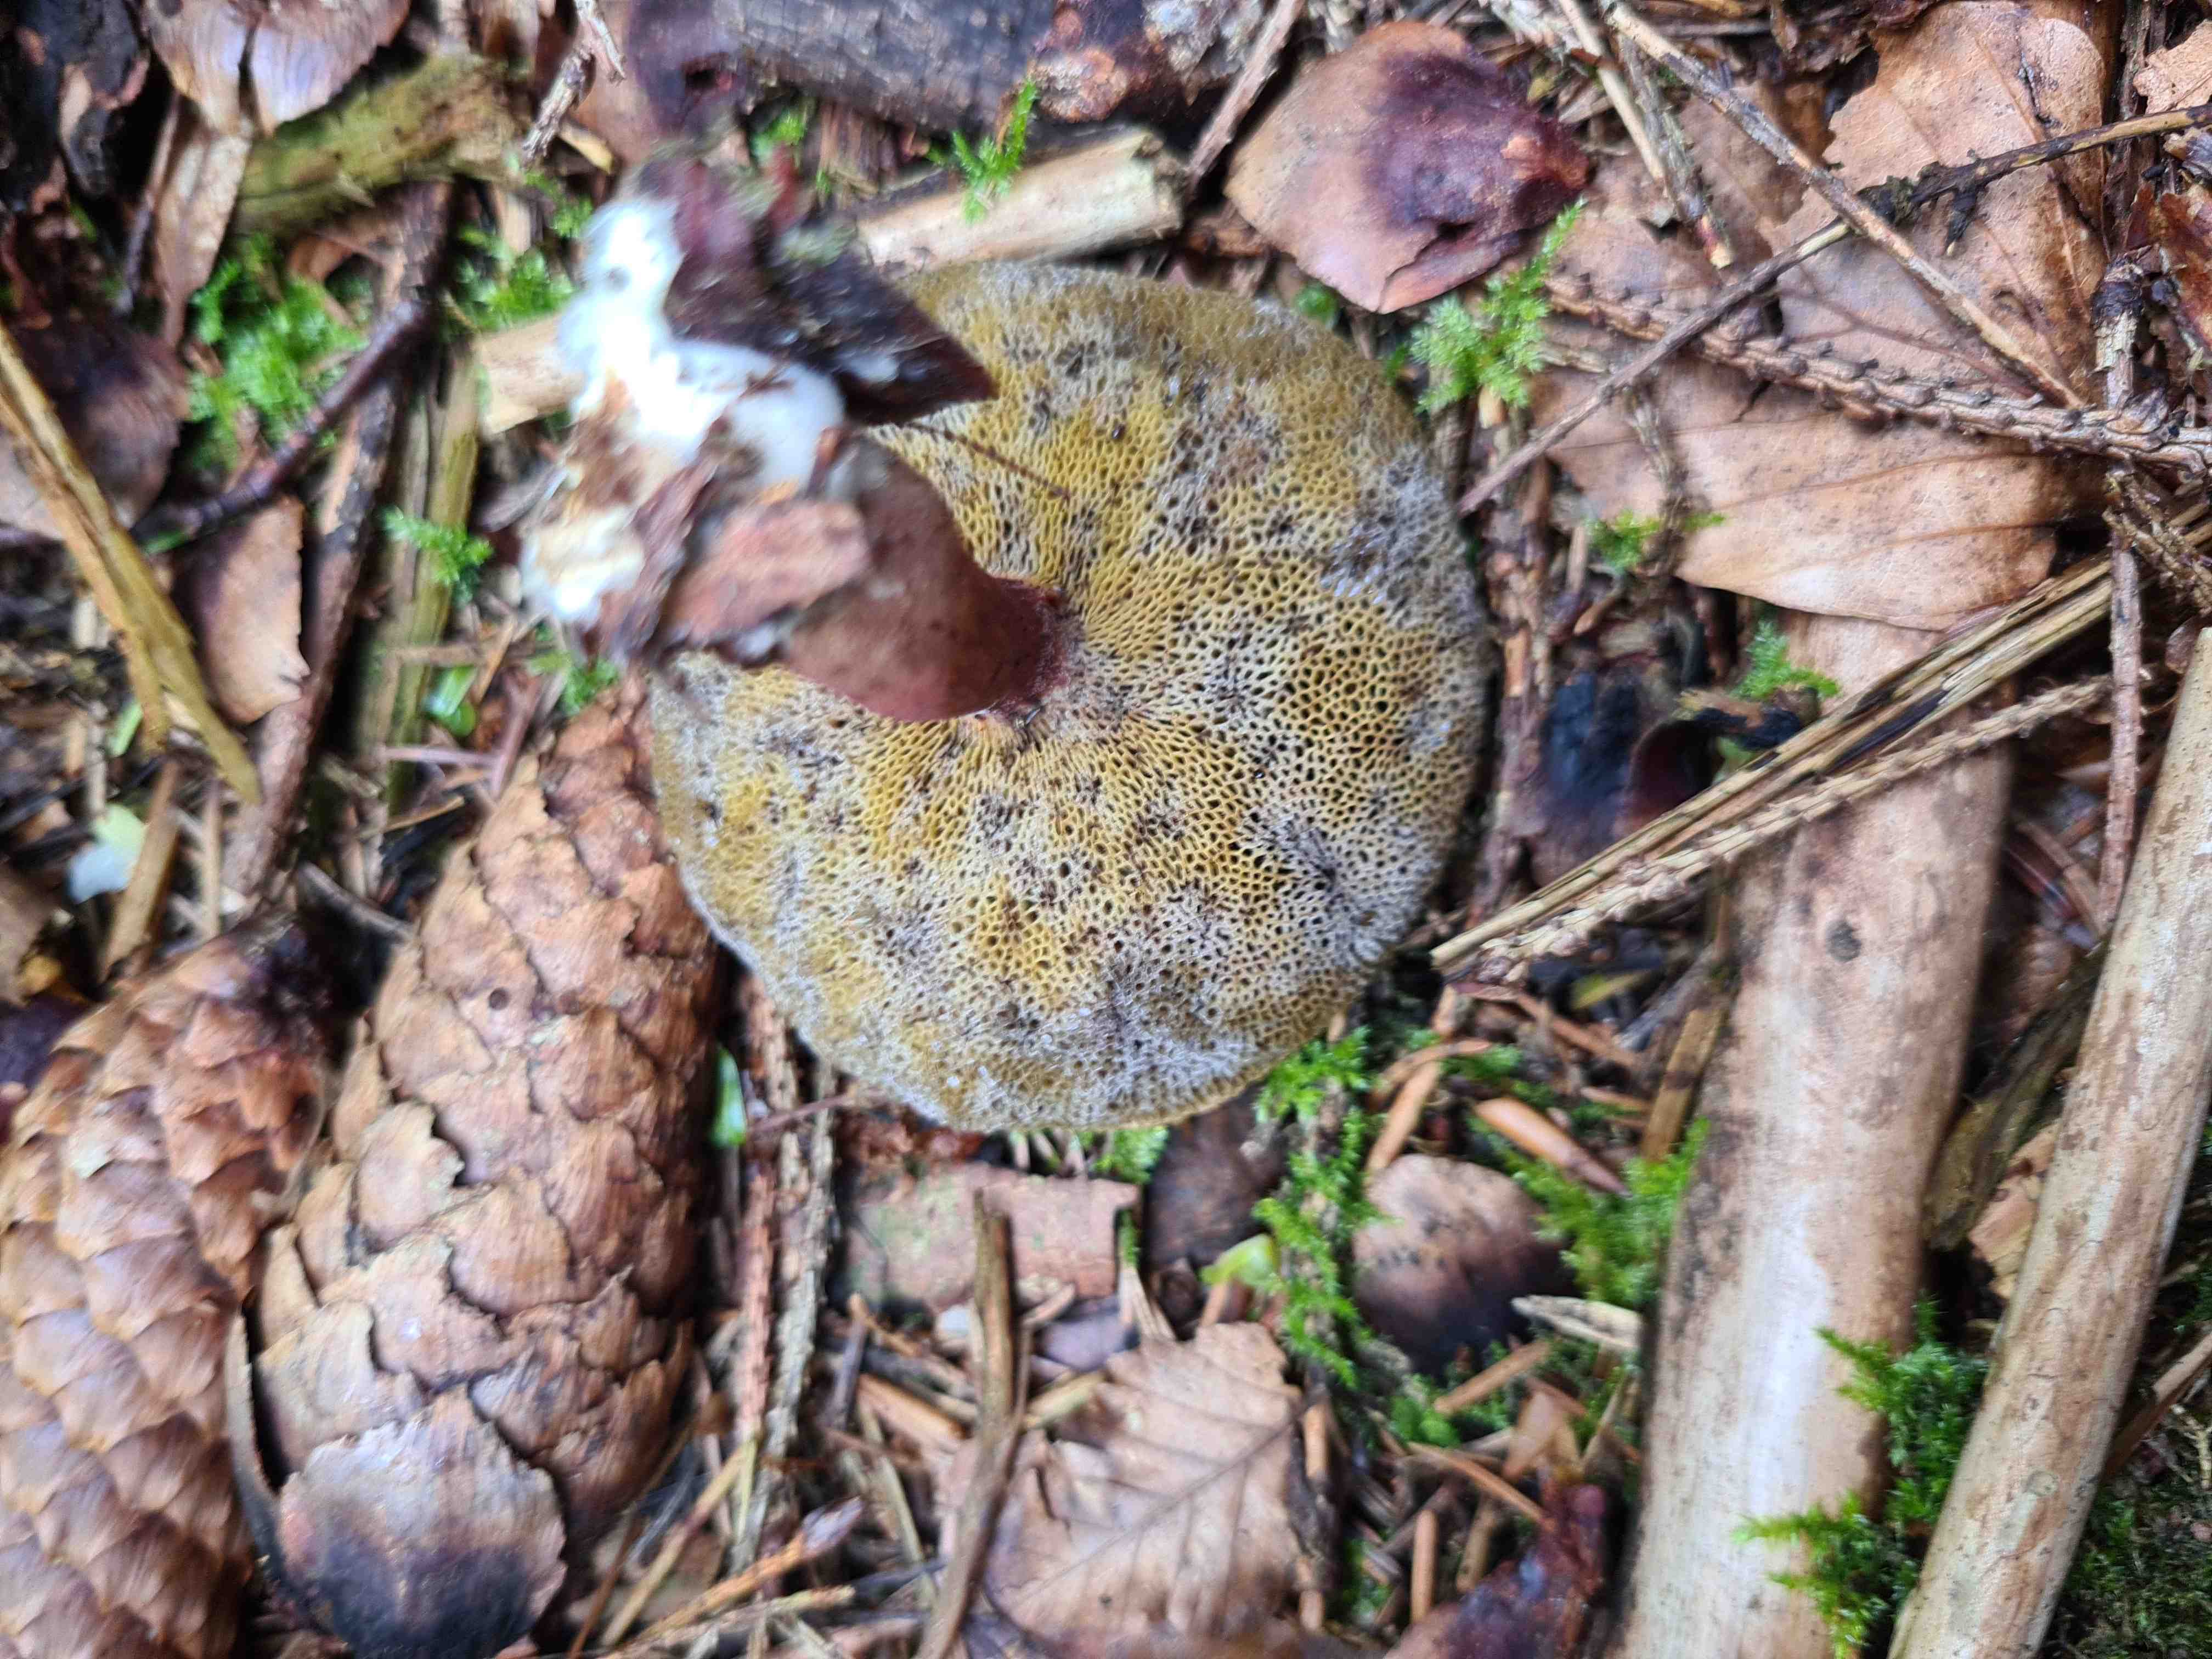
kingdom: Fungi
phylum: Basidiomycota
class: Agaricomycetes
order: Boletales
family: Boletaceae
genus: Xerocomellus
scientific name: Xerocomellus
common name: dværgrørhat
